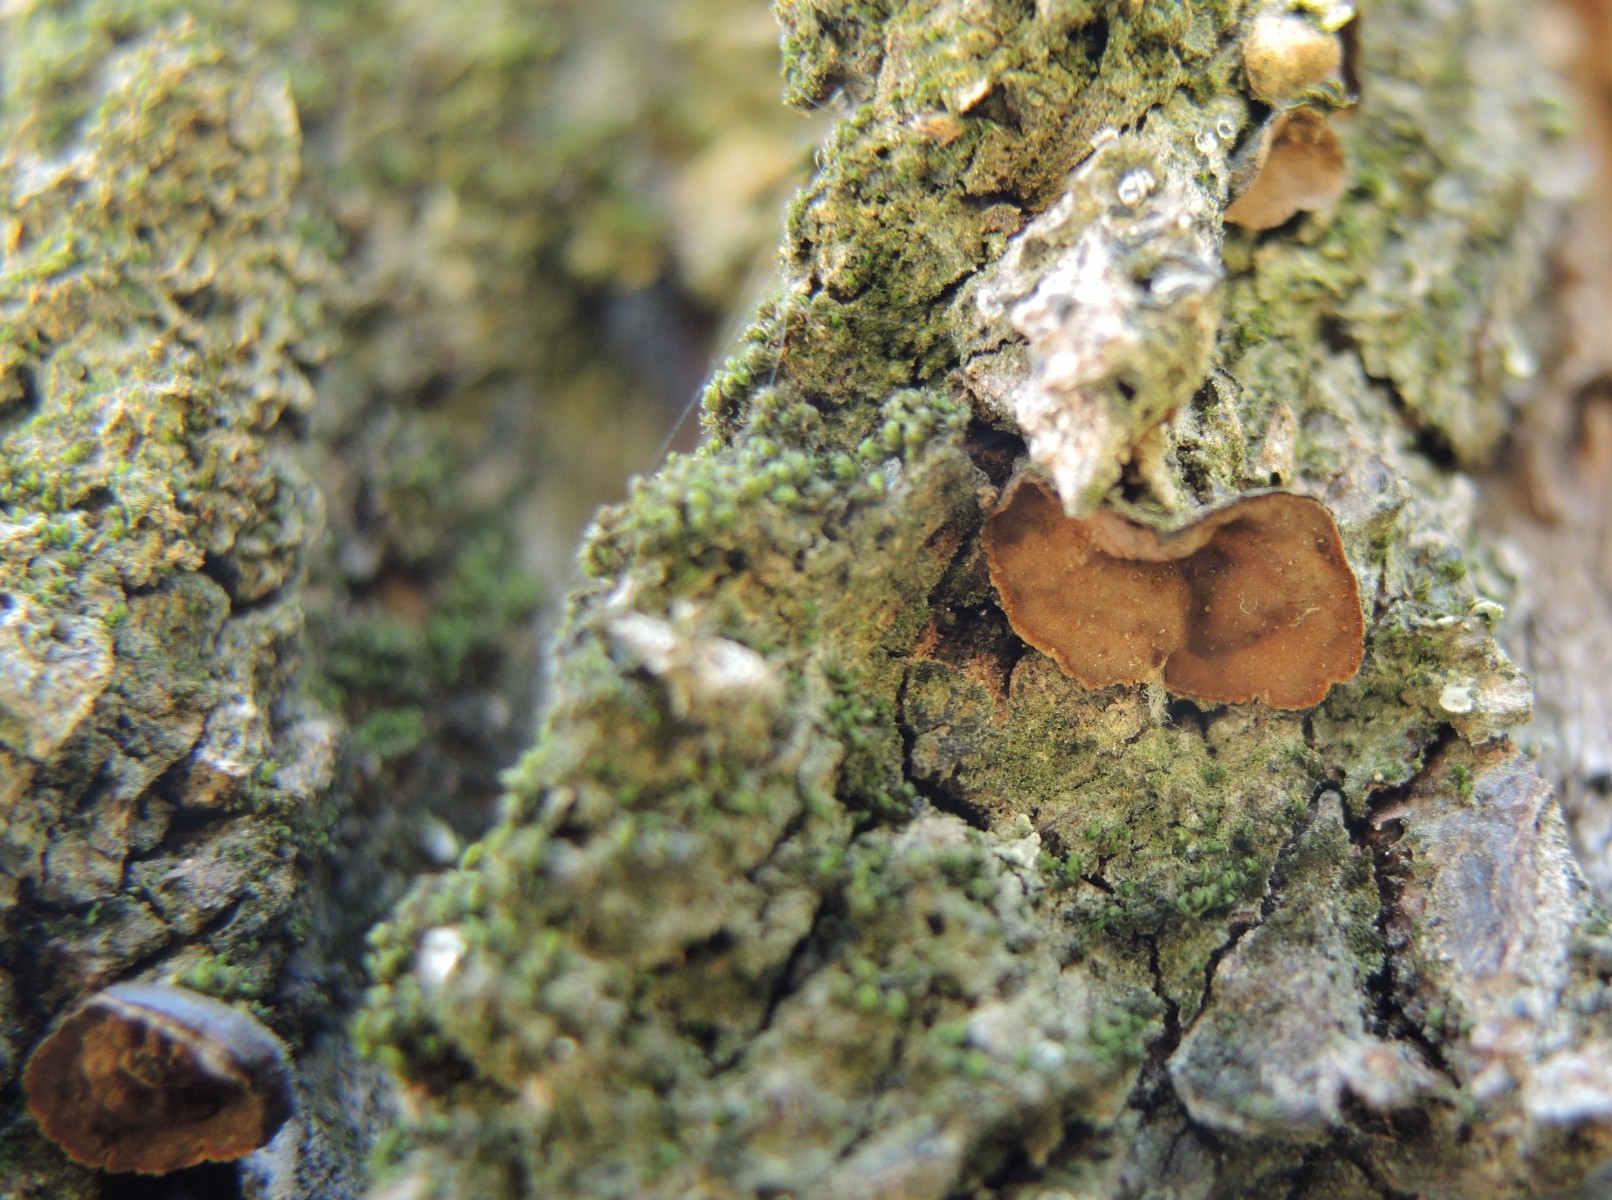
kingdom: Fungi
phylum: Basidiomycota
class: Agaricomycetes
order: Hymenochaetales
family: Hymenochaetaceae
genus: Hymenochaete
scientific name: Hymenochaete ulmicola
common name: elme-ruslædersvamp
